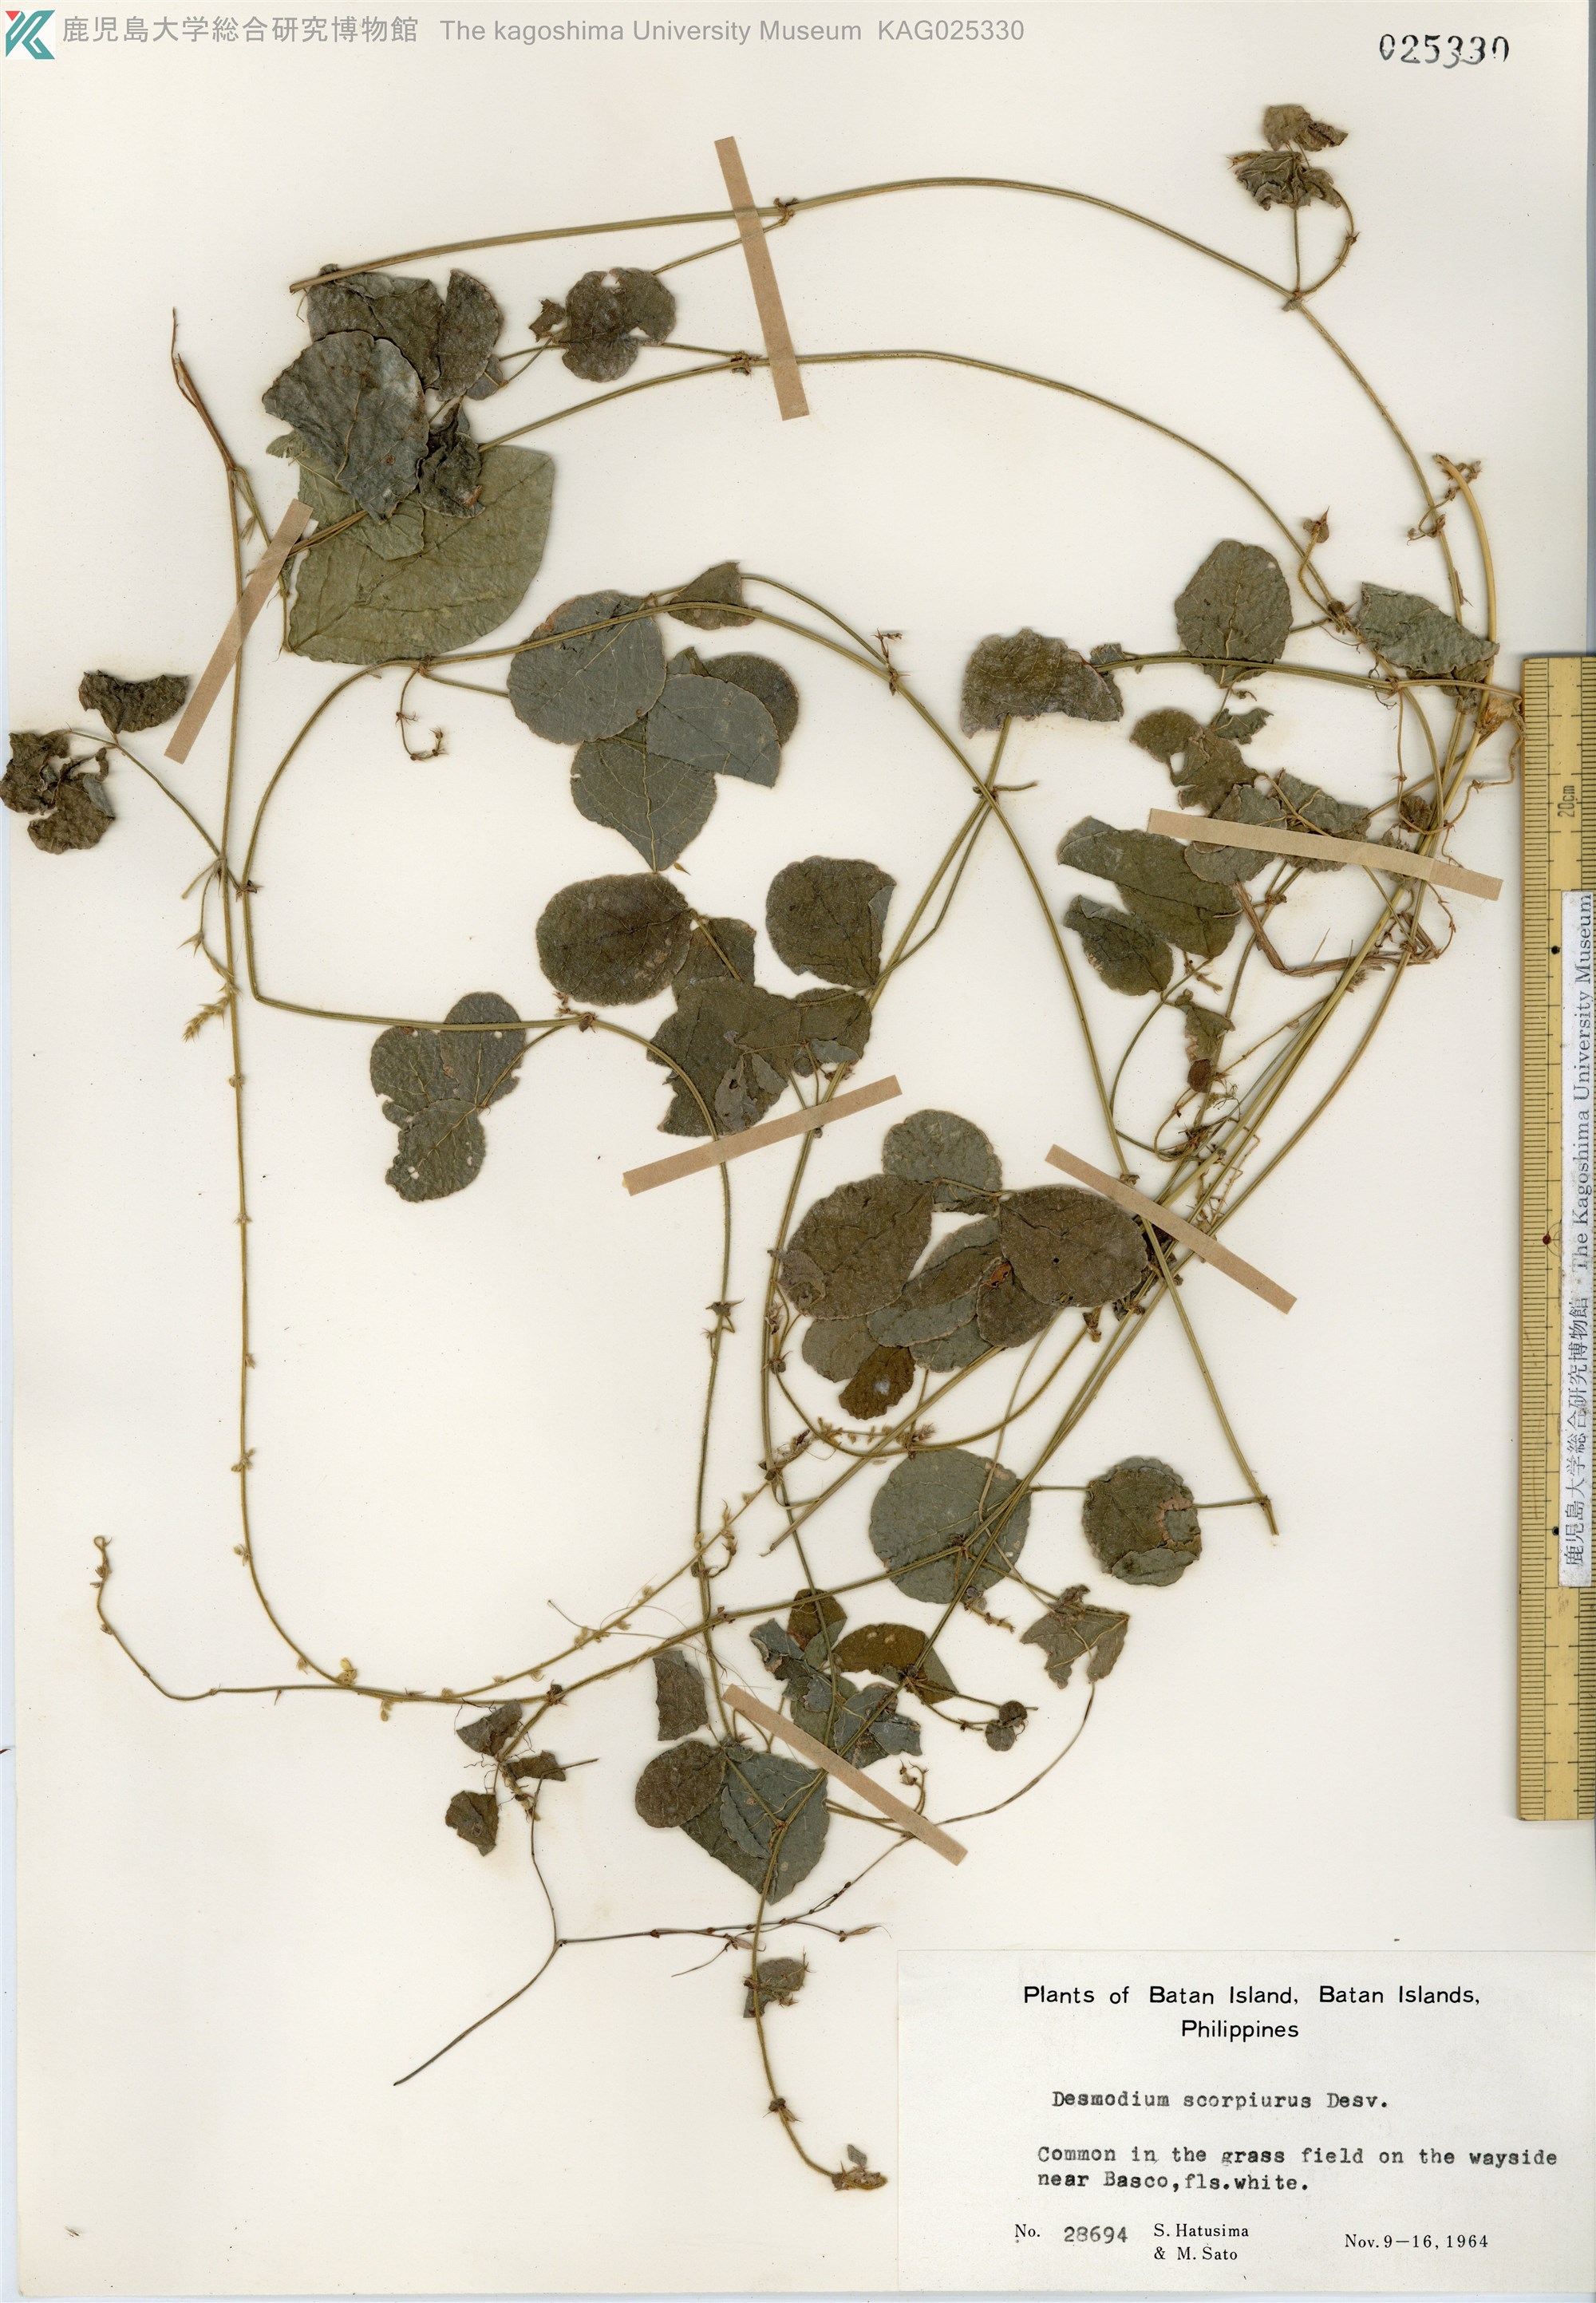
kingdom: Plantae
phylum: Tracheophyta
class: Magnoliopsida
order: Fabales
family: Fabaceae
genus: Desmodium
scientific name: Desmodium scorpiurus
